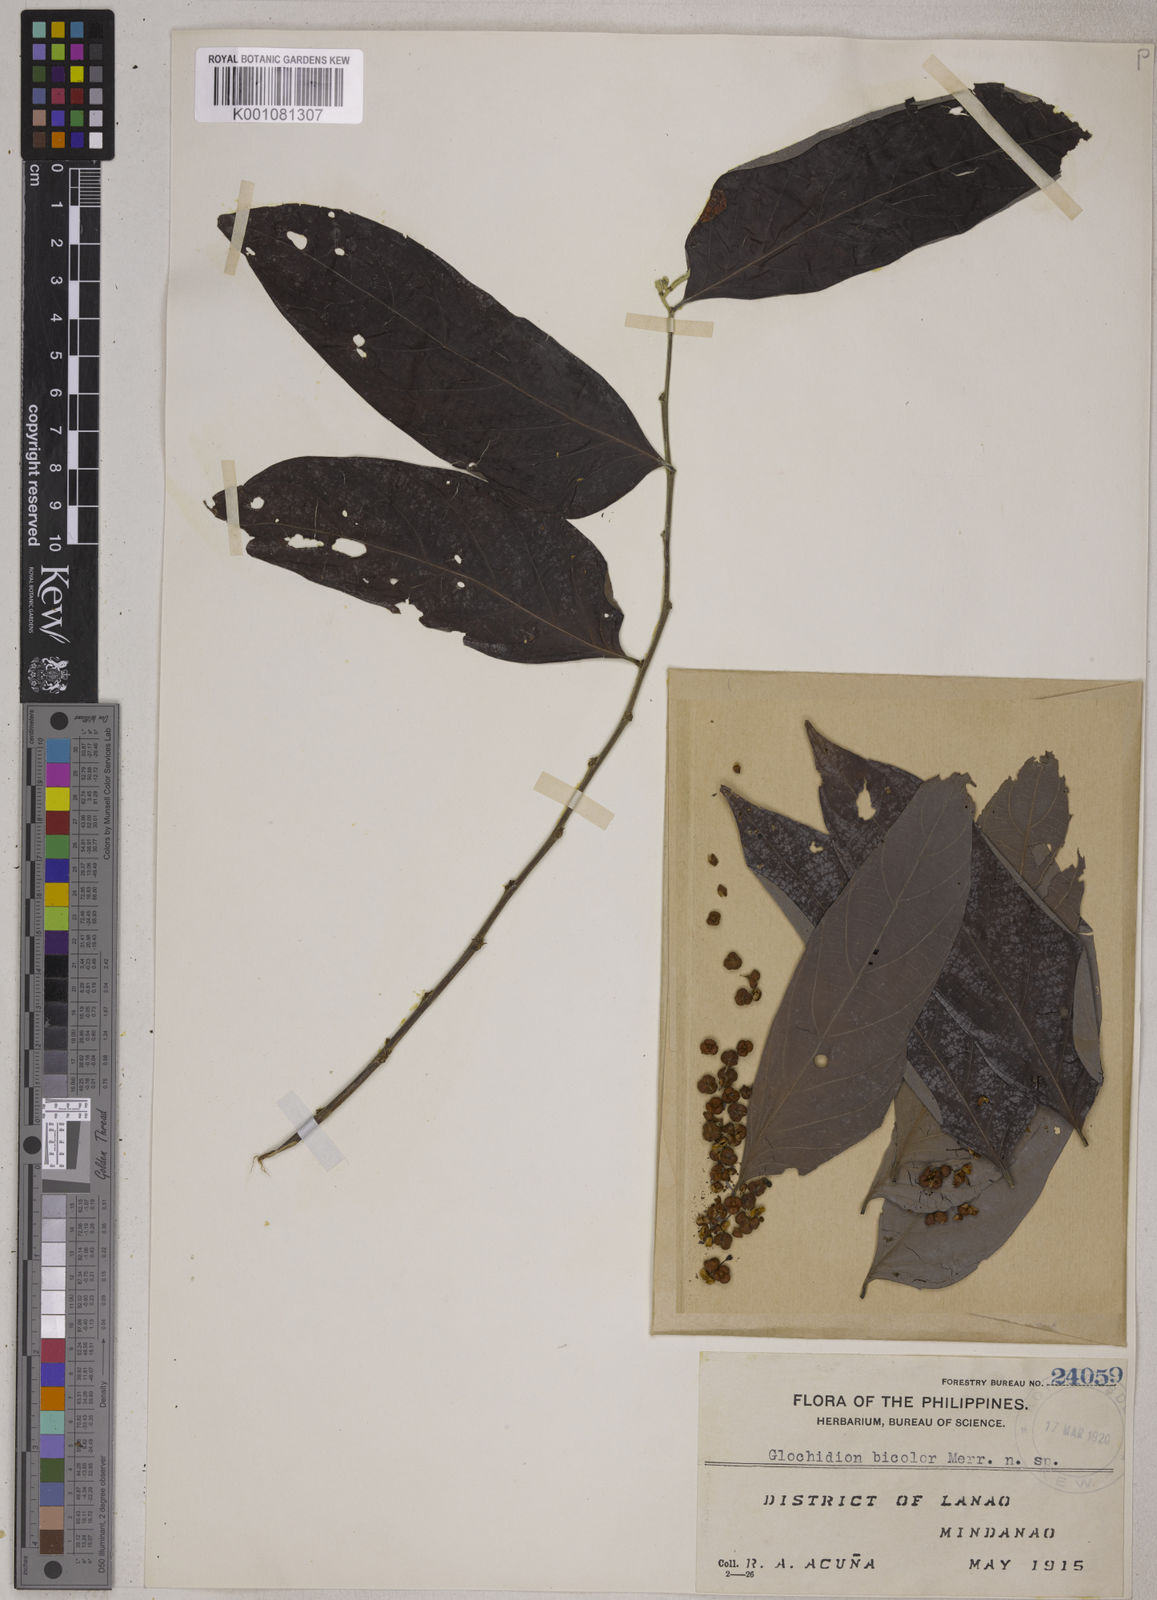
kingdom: Plantae
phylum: Tracheophyta
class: Magnoliopsida
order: Malpighiales
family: Phyllanthaceae
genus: Glochidion
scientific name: Glochidion robinsonii
